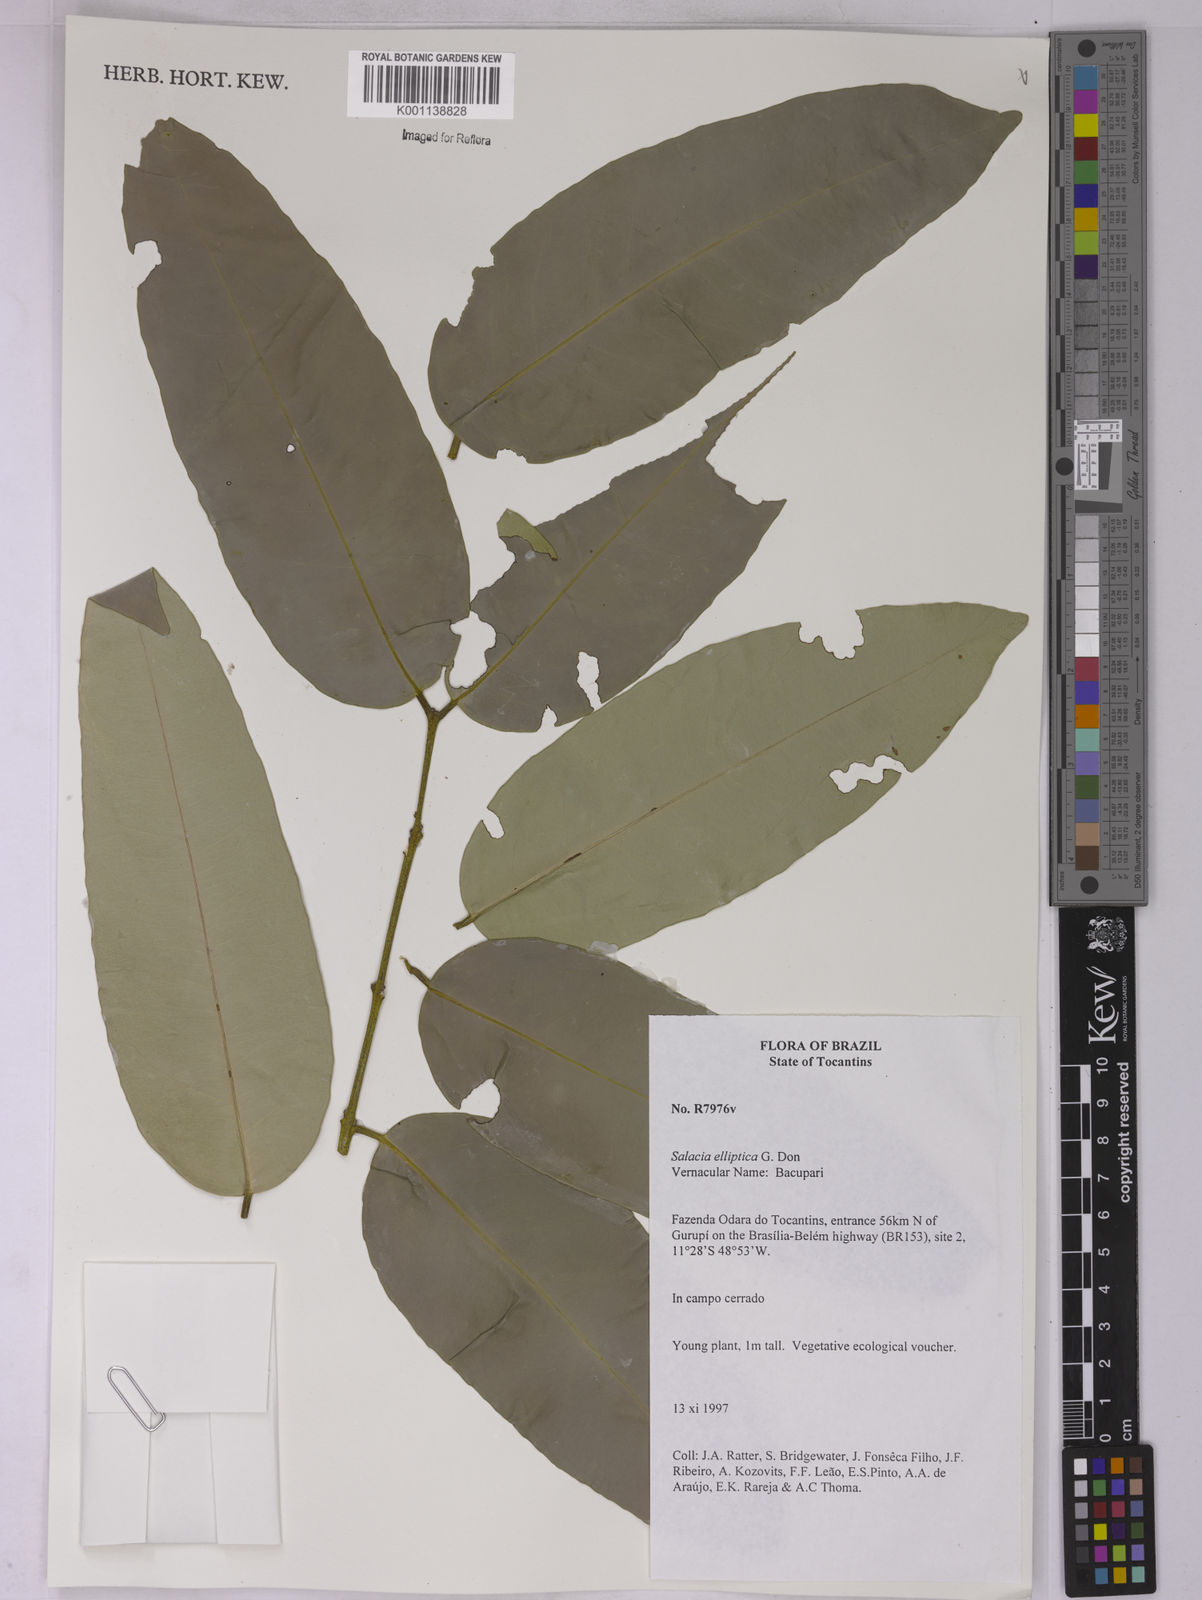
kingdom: Plantae
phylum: Tracheophyta
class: Magnoliopsida
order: Celastrales
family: Celastraceae
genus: Salacia
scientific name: Salacia elliptica
